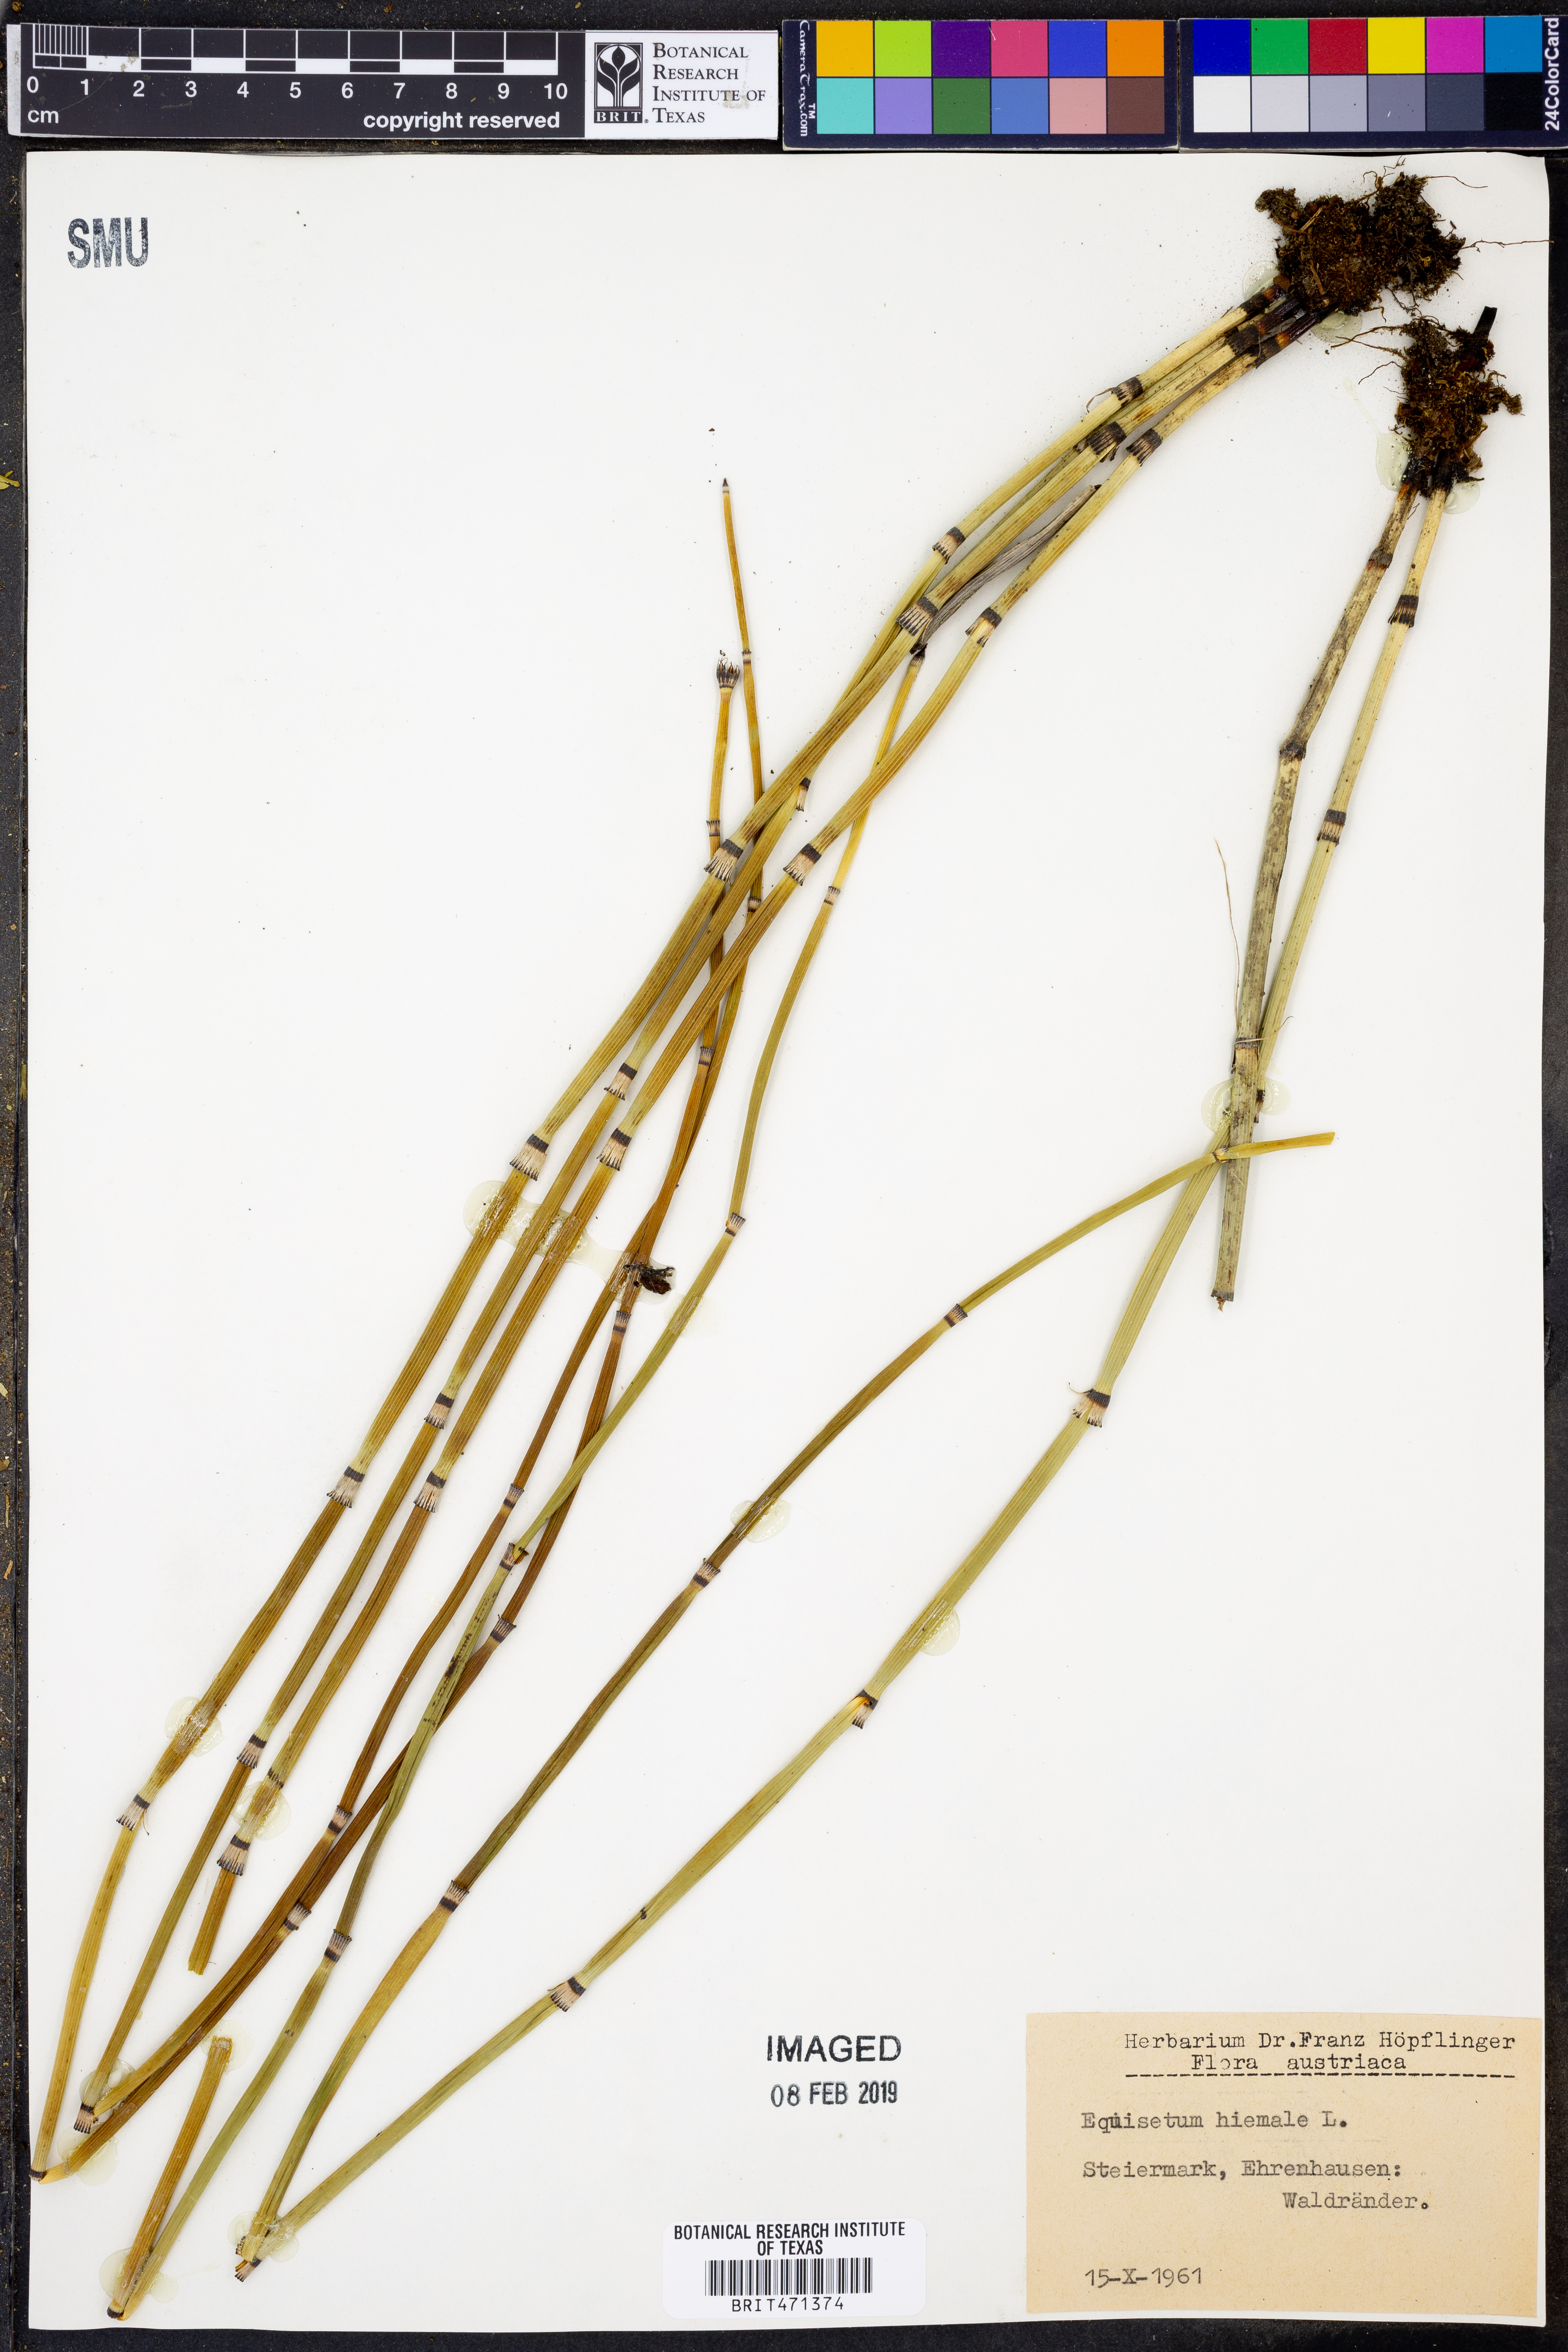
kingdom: Plantae
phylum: Tracheophyta
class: Polypodiopsida
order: Equisetales
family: Equisetaceae
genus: Equisetum
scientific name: Equisetum hyemale
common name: Rough horsetail
